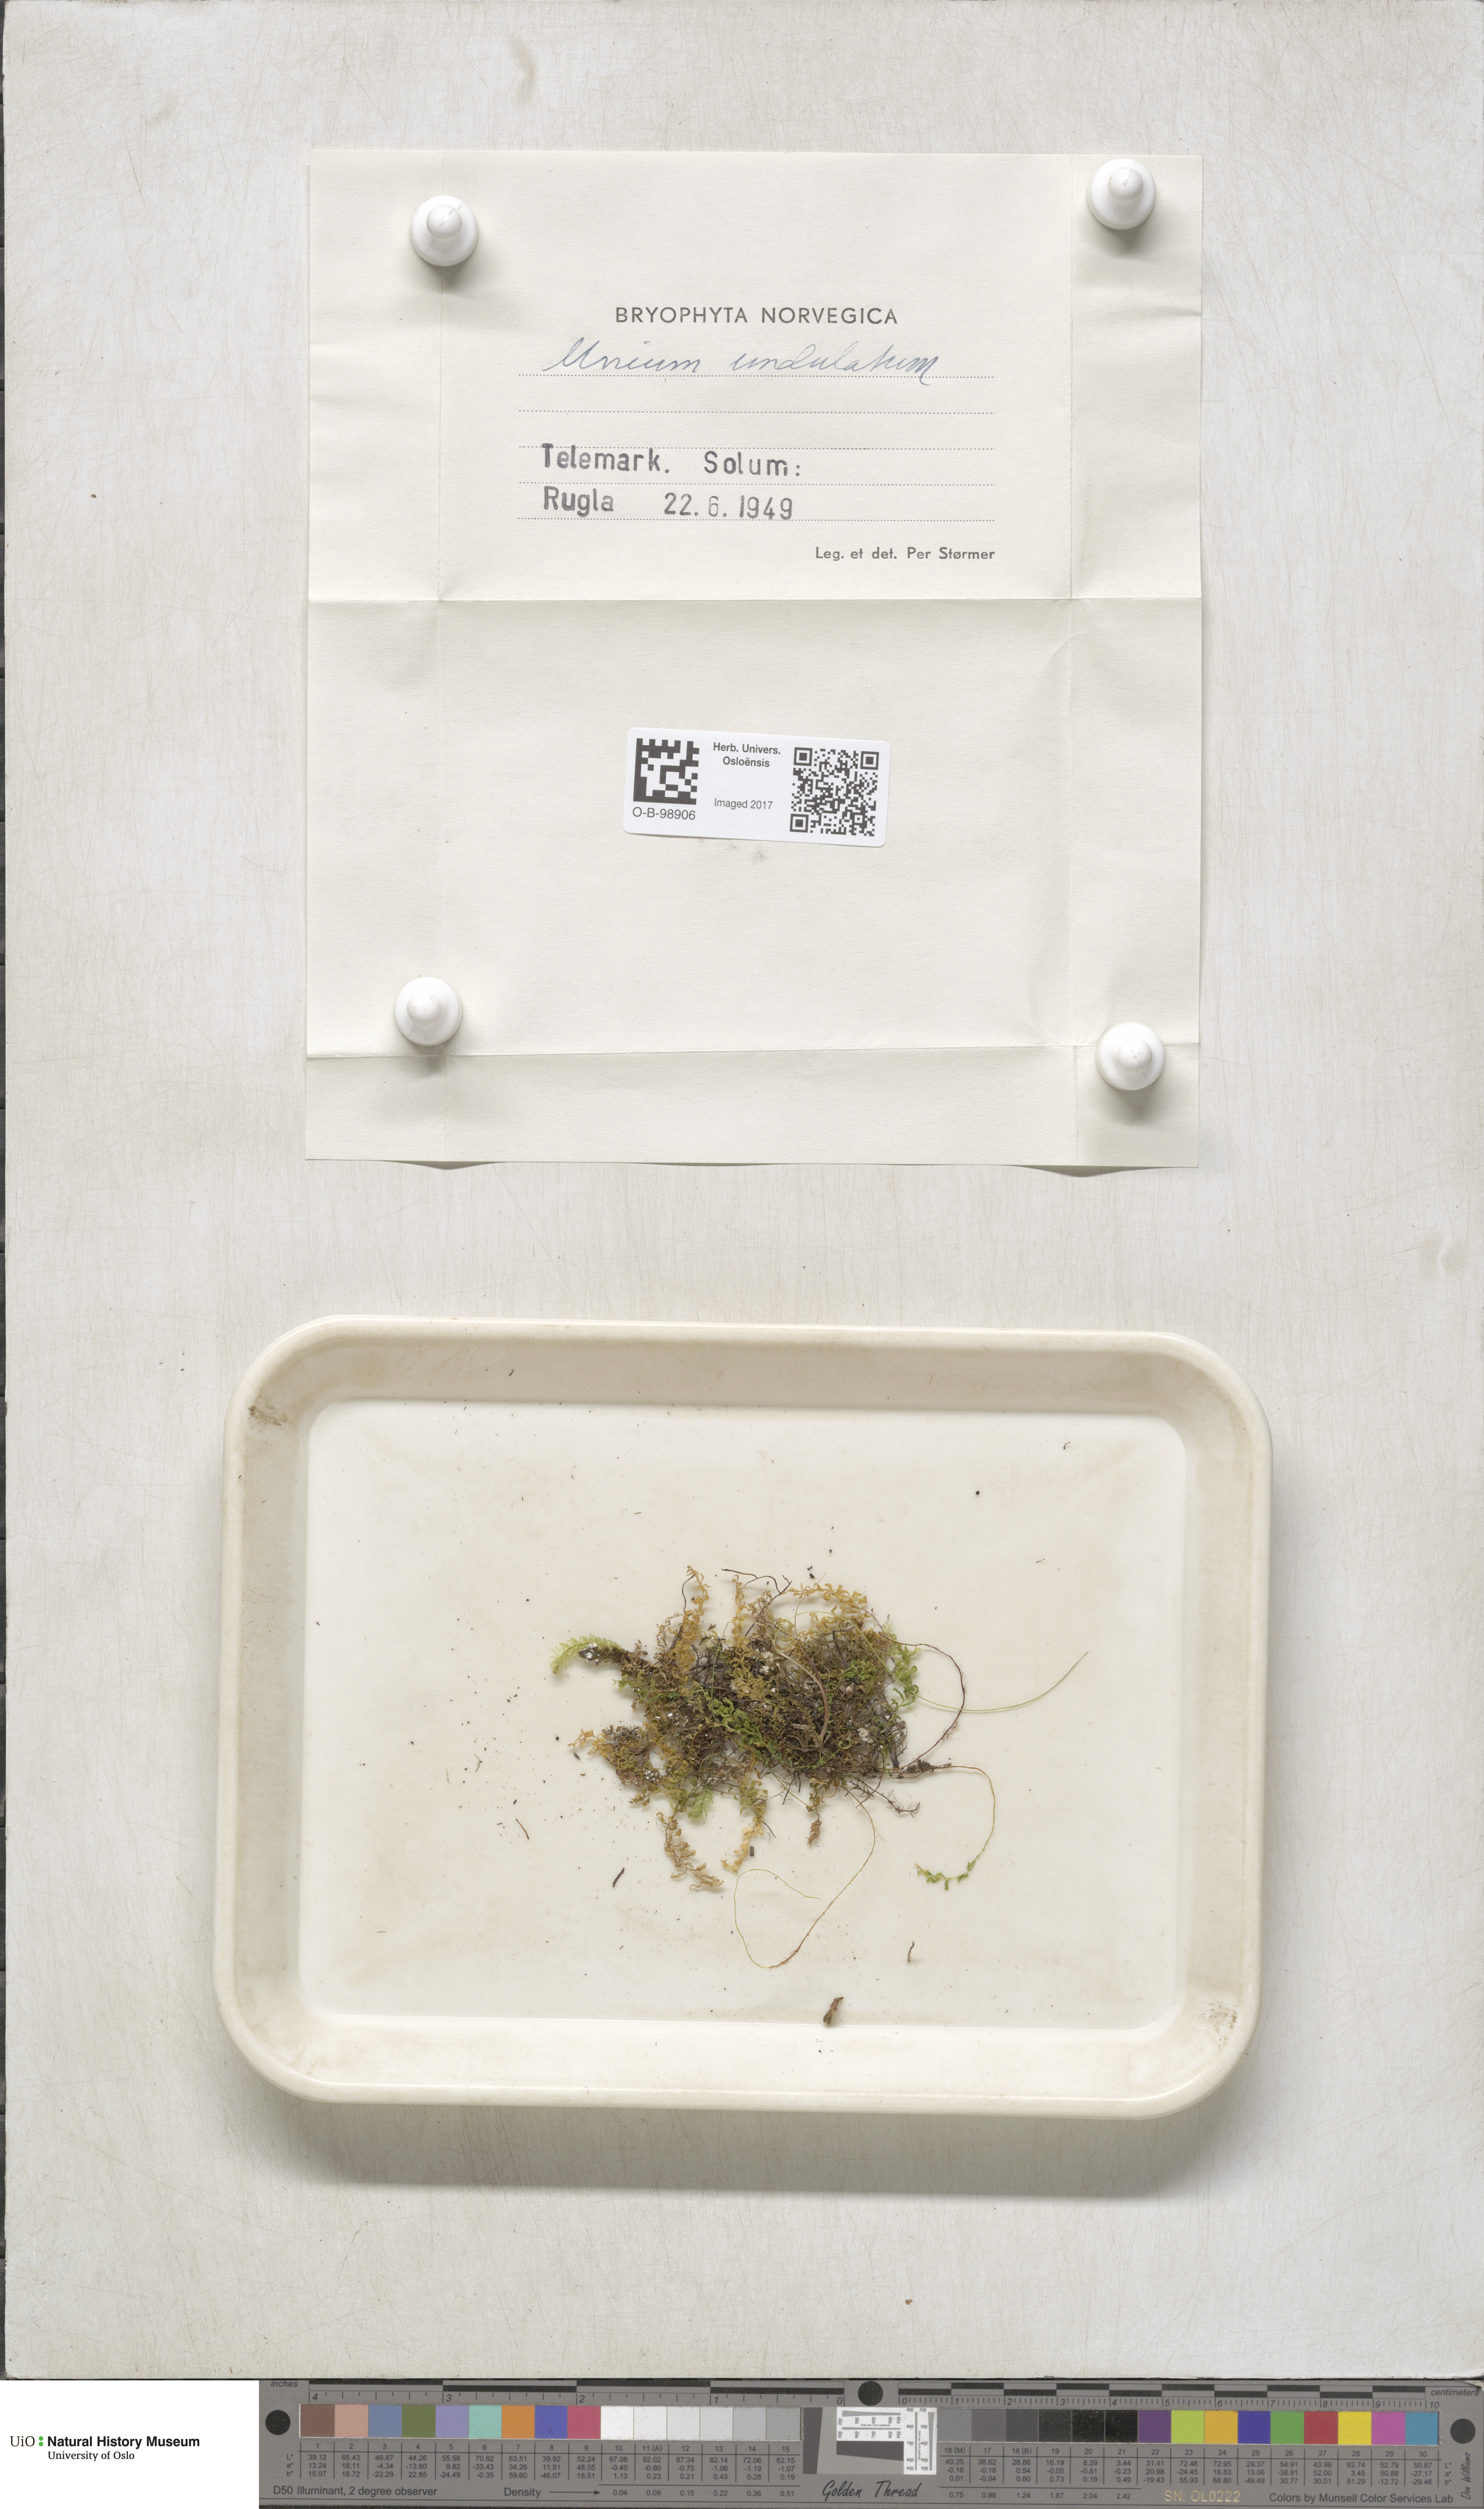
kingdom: Plantae
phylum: Bryophyta
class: Bryopsida
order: Bryales
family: Mniaceae
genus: Plagiomnium
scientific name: Plagiomnium undulatum
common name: Hart's-tongue thyme-moss
